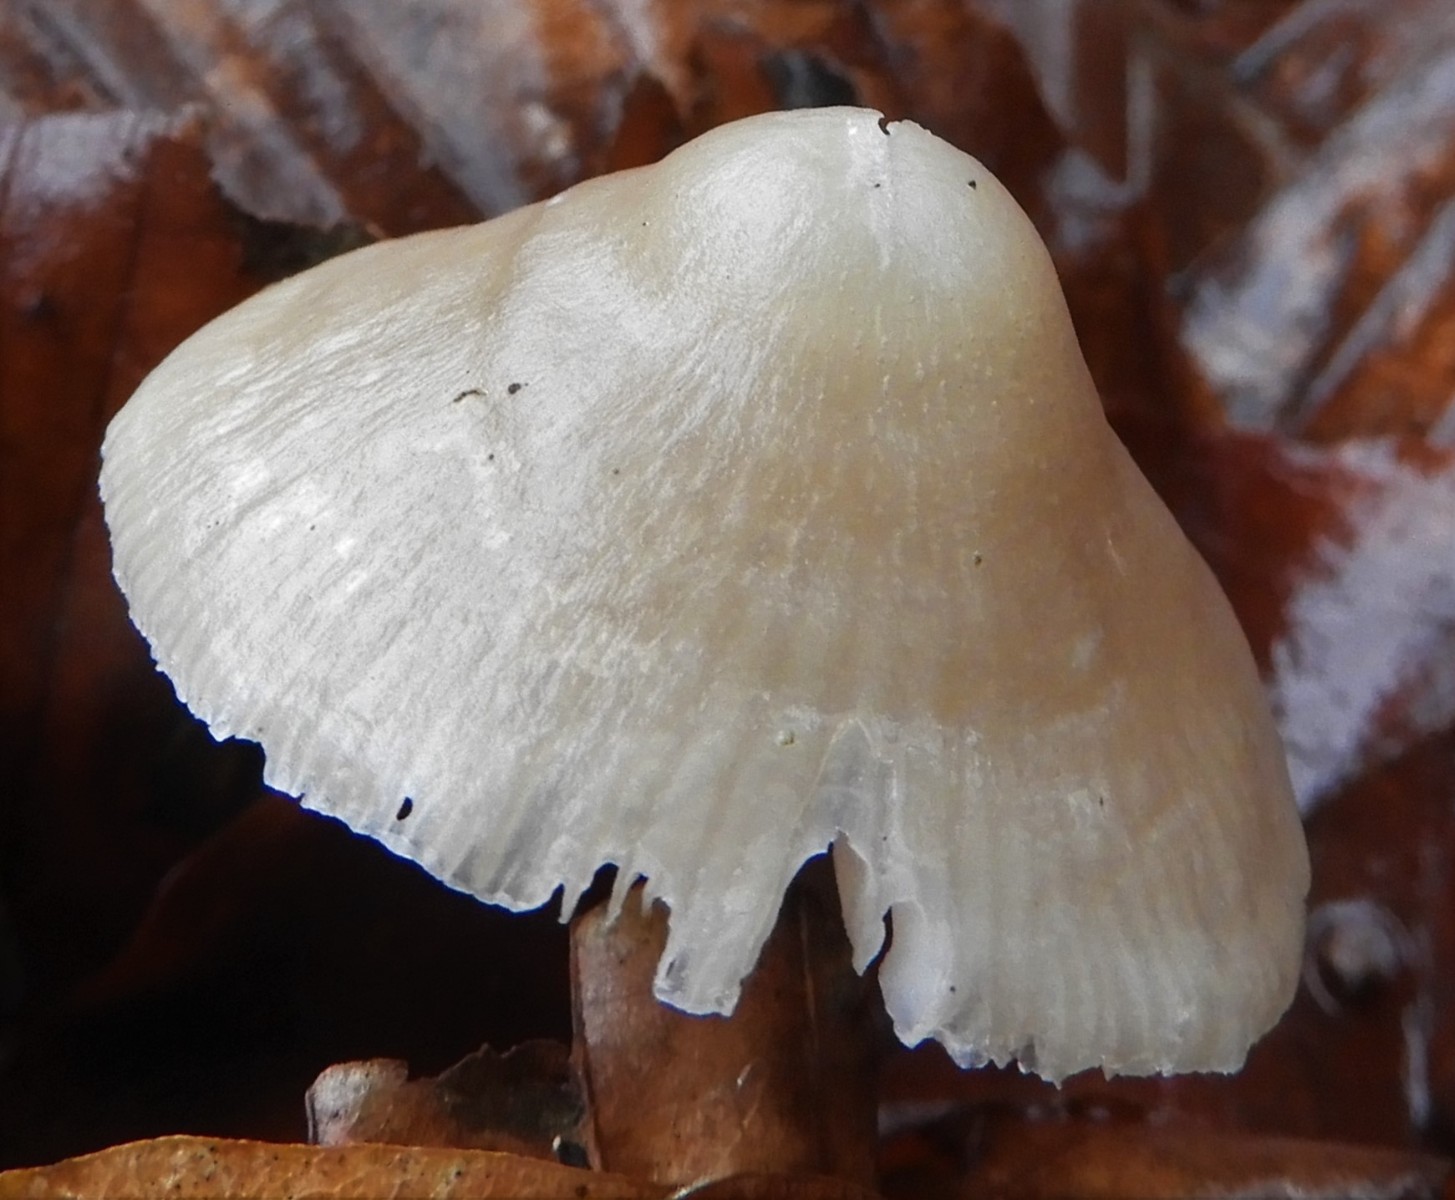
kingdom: Fungi
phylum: Basidiomycota
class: Agaricomycetes
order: Agaricales
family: Mycenaceae
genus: Mycena
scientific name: Mycena galericulata
